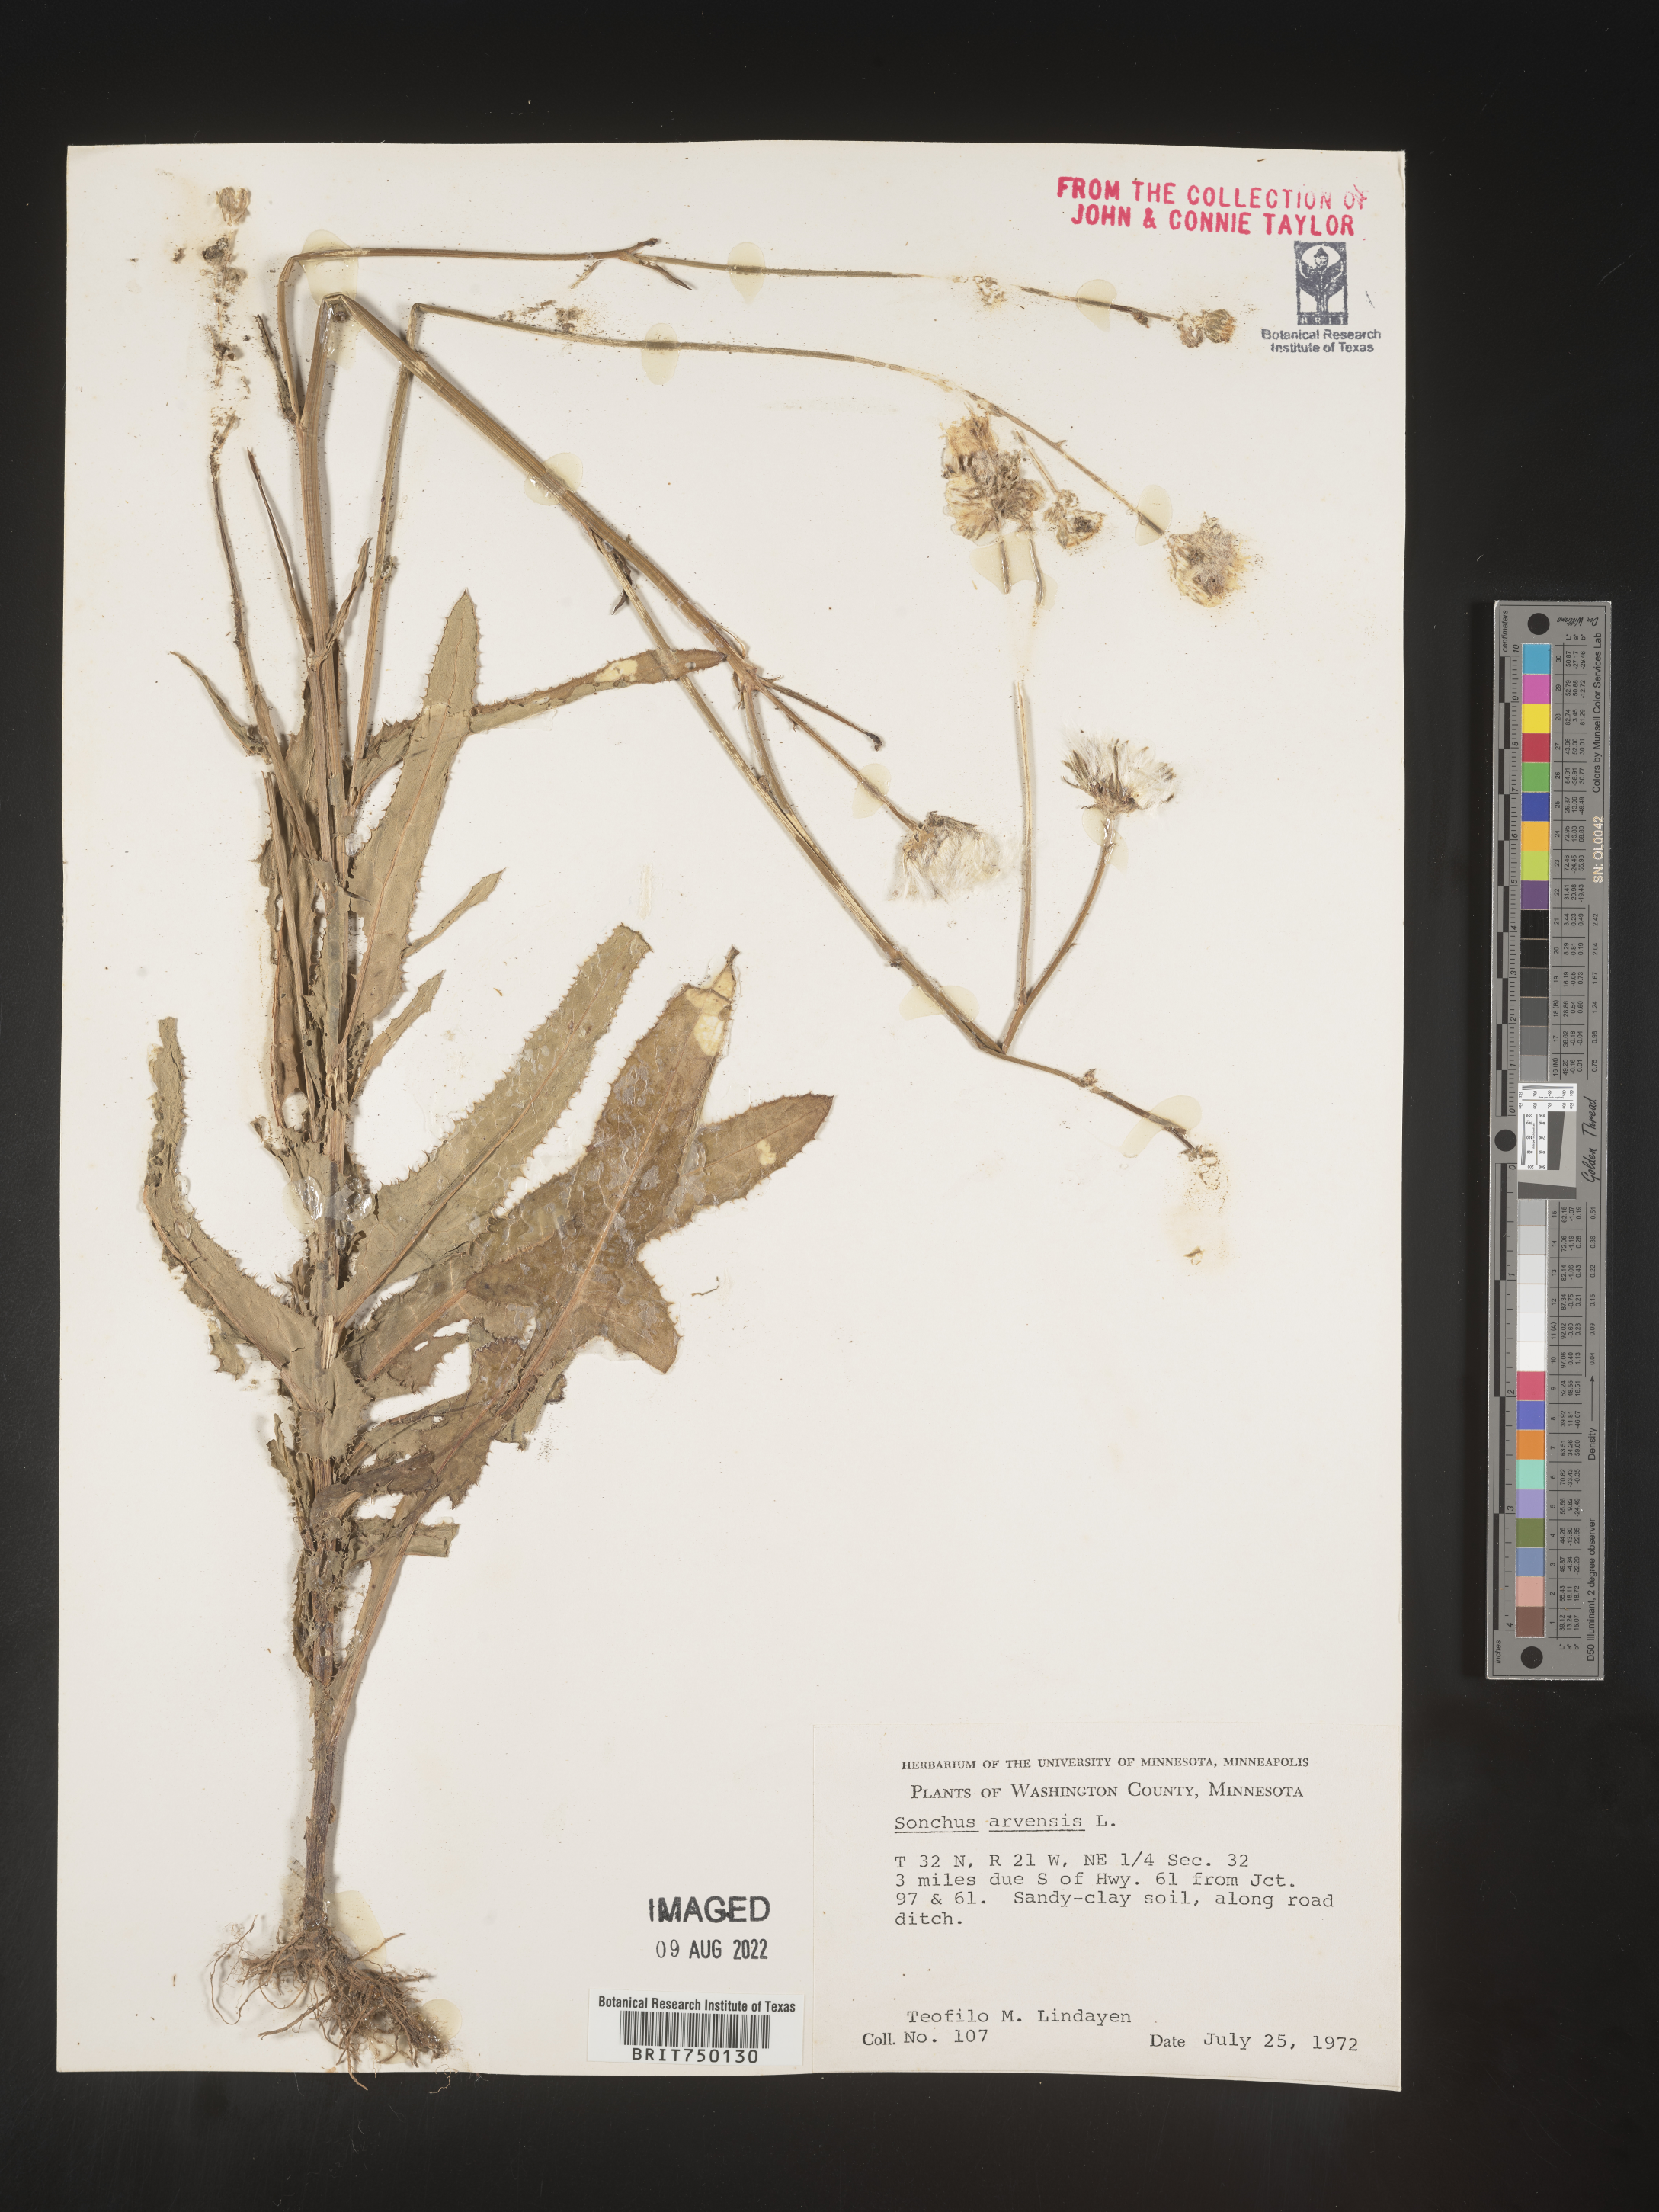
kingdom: Plantae
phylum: Tracheophyta
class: Magnoliopsida
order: Asterales
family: Asteraceae
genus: Sonchus
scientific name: Sonchus arvensis
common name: Perennial sow-thistle
